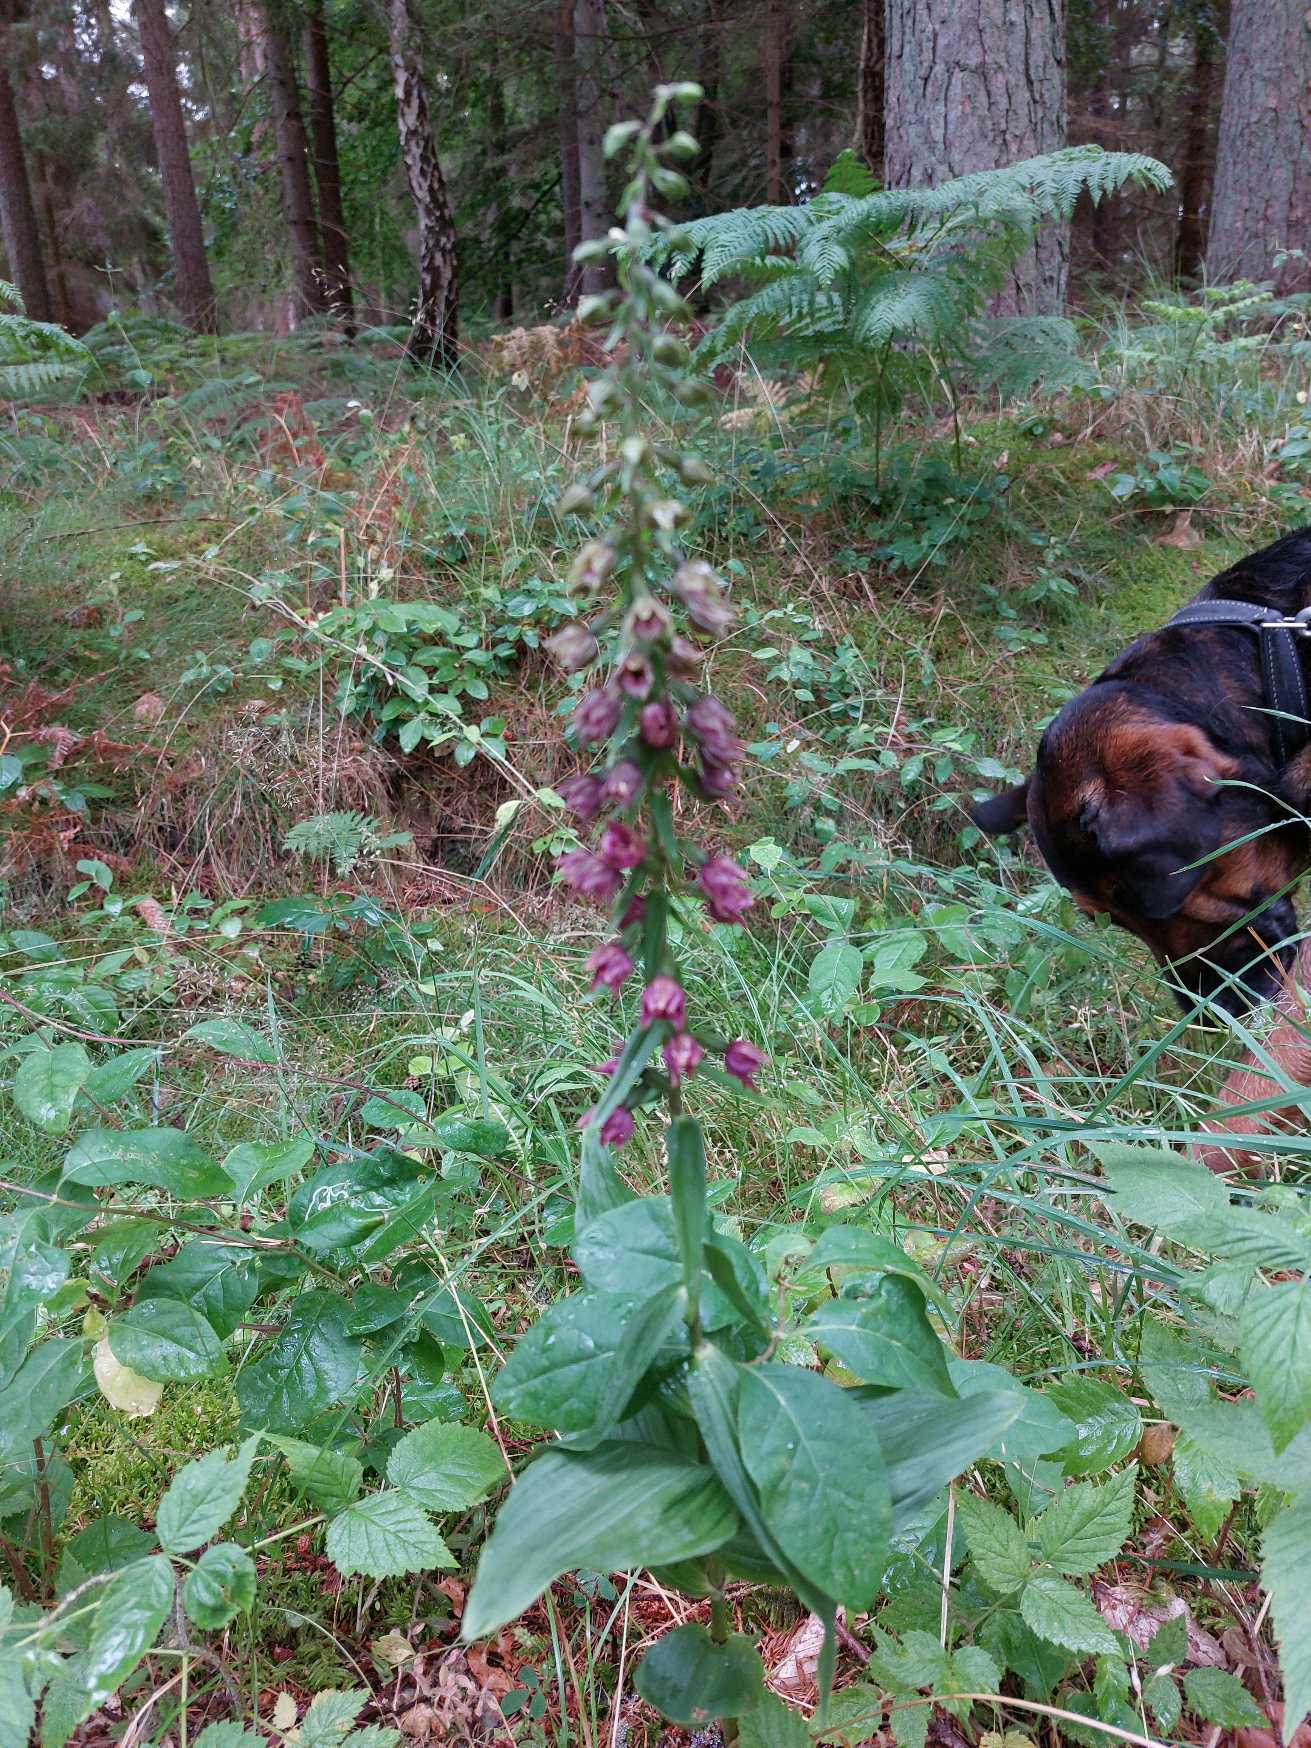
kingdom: Plantae
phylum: Tracheophyta
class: Liliopsida
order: Asparagales
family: Orchidaceae
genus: Epipactis
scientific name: Epipactis helleborine
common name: Skov-hullæbe
